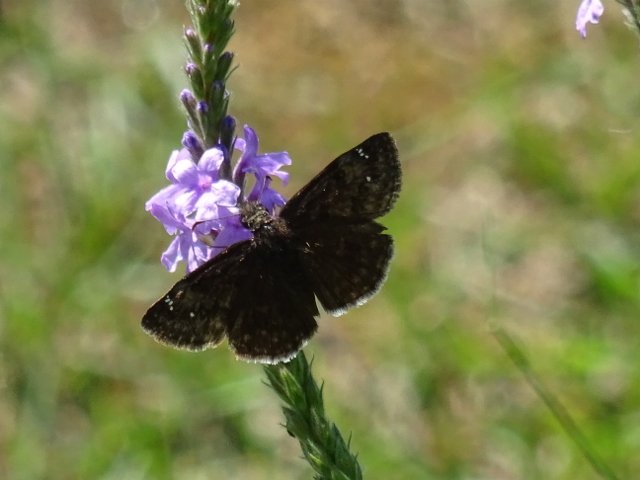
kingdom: Animalia
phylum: Arthropoda
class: Insecta
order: Lepidoptera
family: Hesperiidae
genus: Gesta
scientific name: Gesta
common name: Wild Indigo Duskywing
